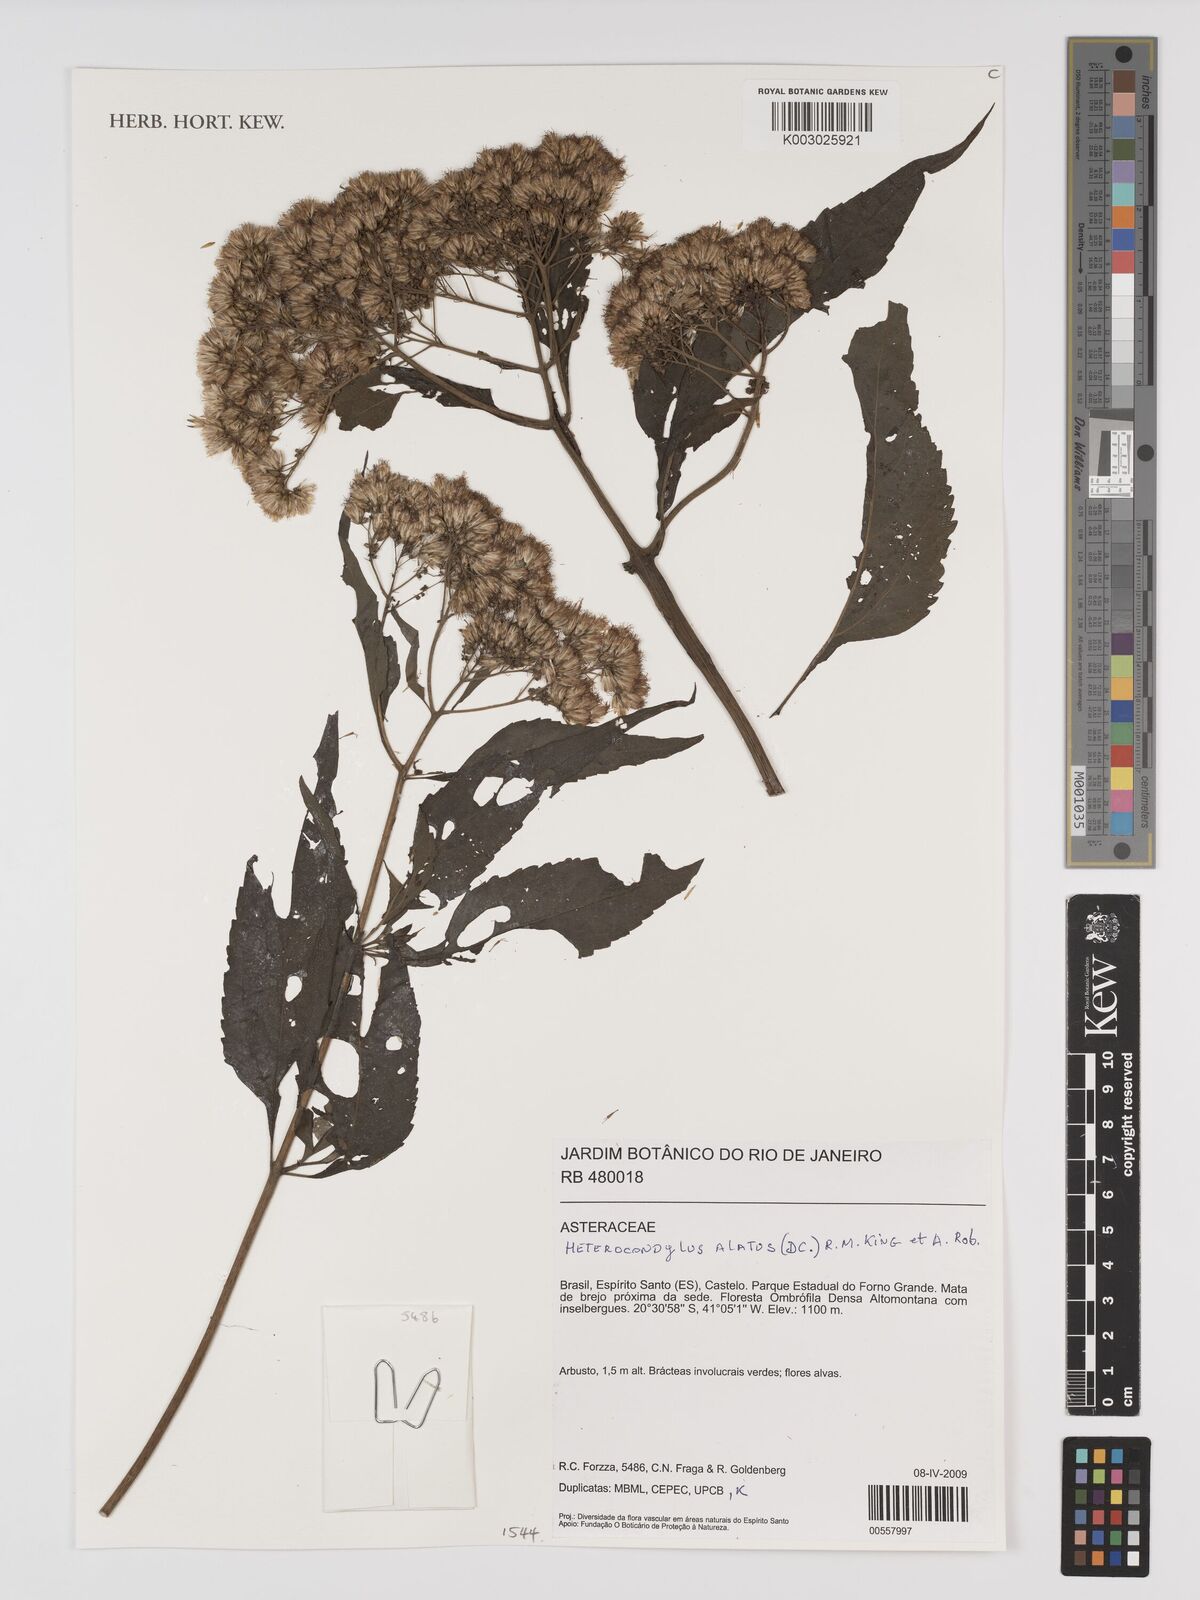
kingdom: Plantae
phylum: Tracheophyta
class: Magnoliopsida
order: Asterales
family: Asteraceae
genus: Heterocondylus
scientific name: Heterocondylus alatus
